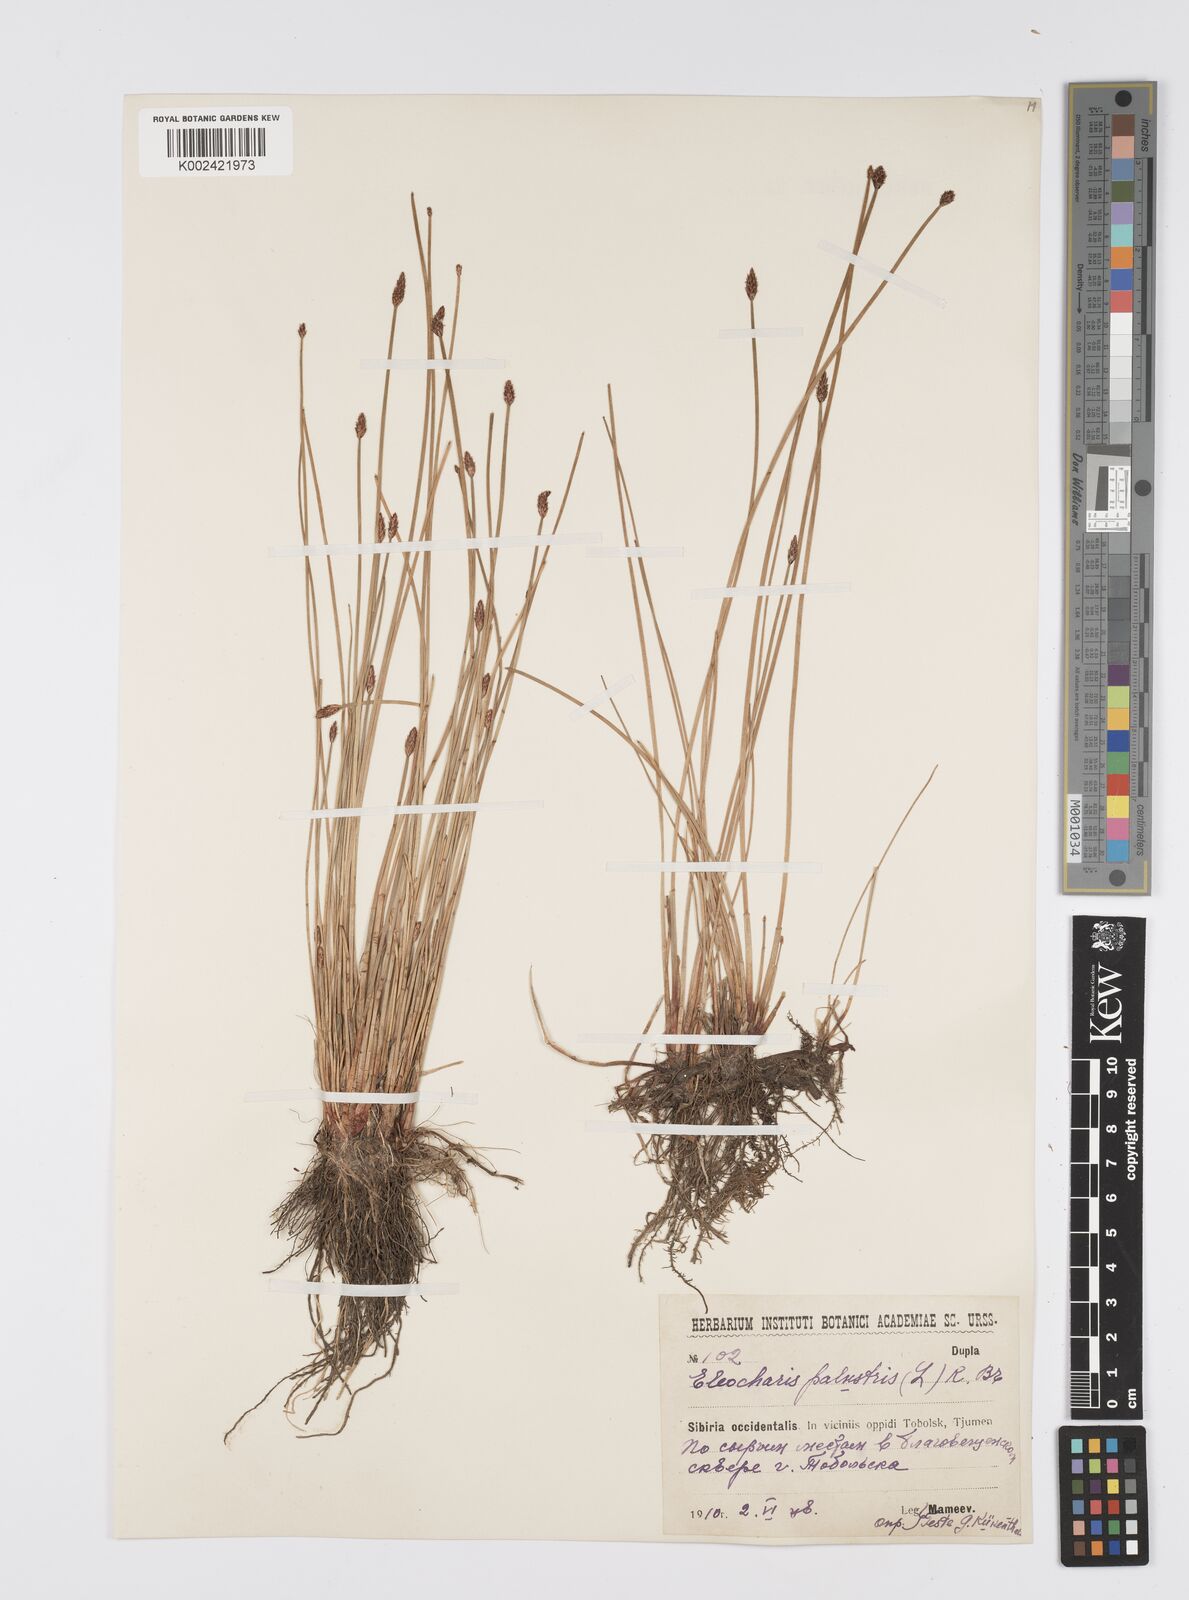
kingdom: Plantae
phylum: Tracheophyta
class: Liliopsida
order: Poales
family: Cyperaceae
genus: Eleocharis
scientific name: Eleocharis palustris
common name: Common spike-rush
